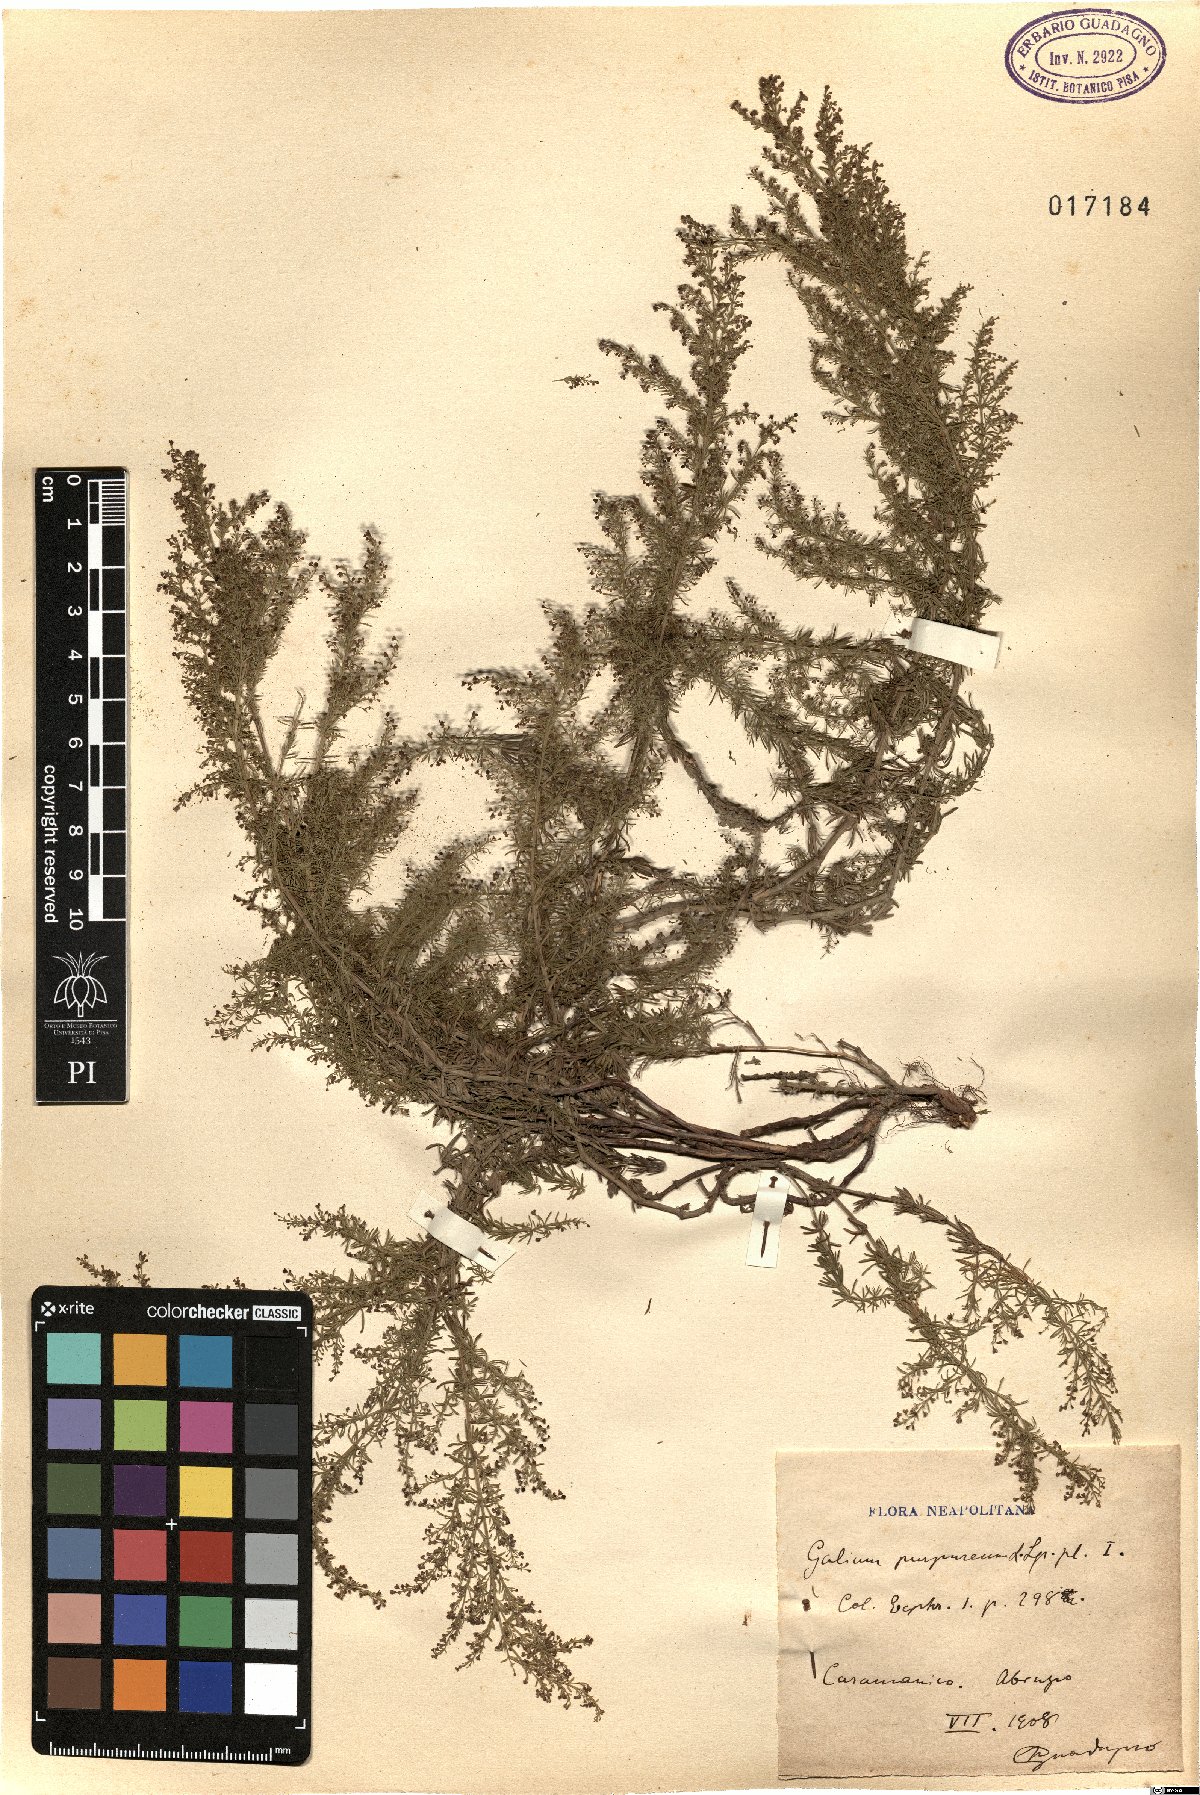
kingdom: Plantae
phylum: Tracheophyta
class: Magnoliopsida
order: Gentianales
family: Rubiaceae
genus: Thliphthisa
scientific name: Thliphthisa purpurea
